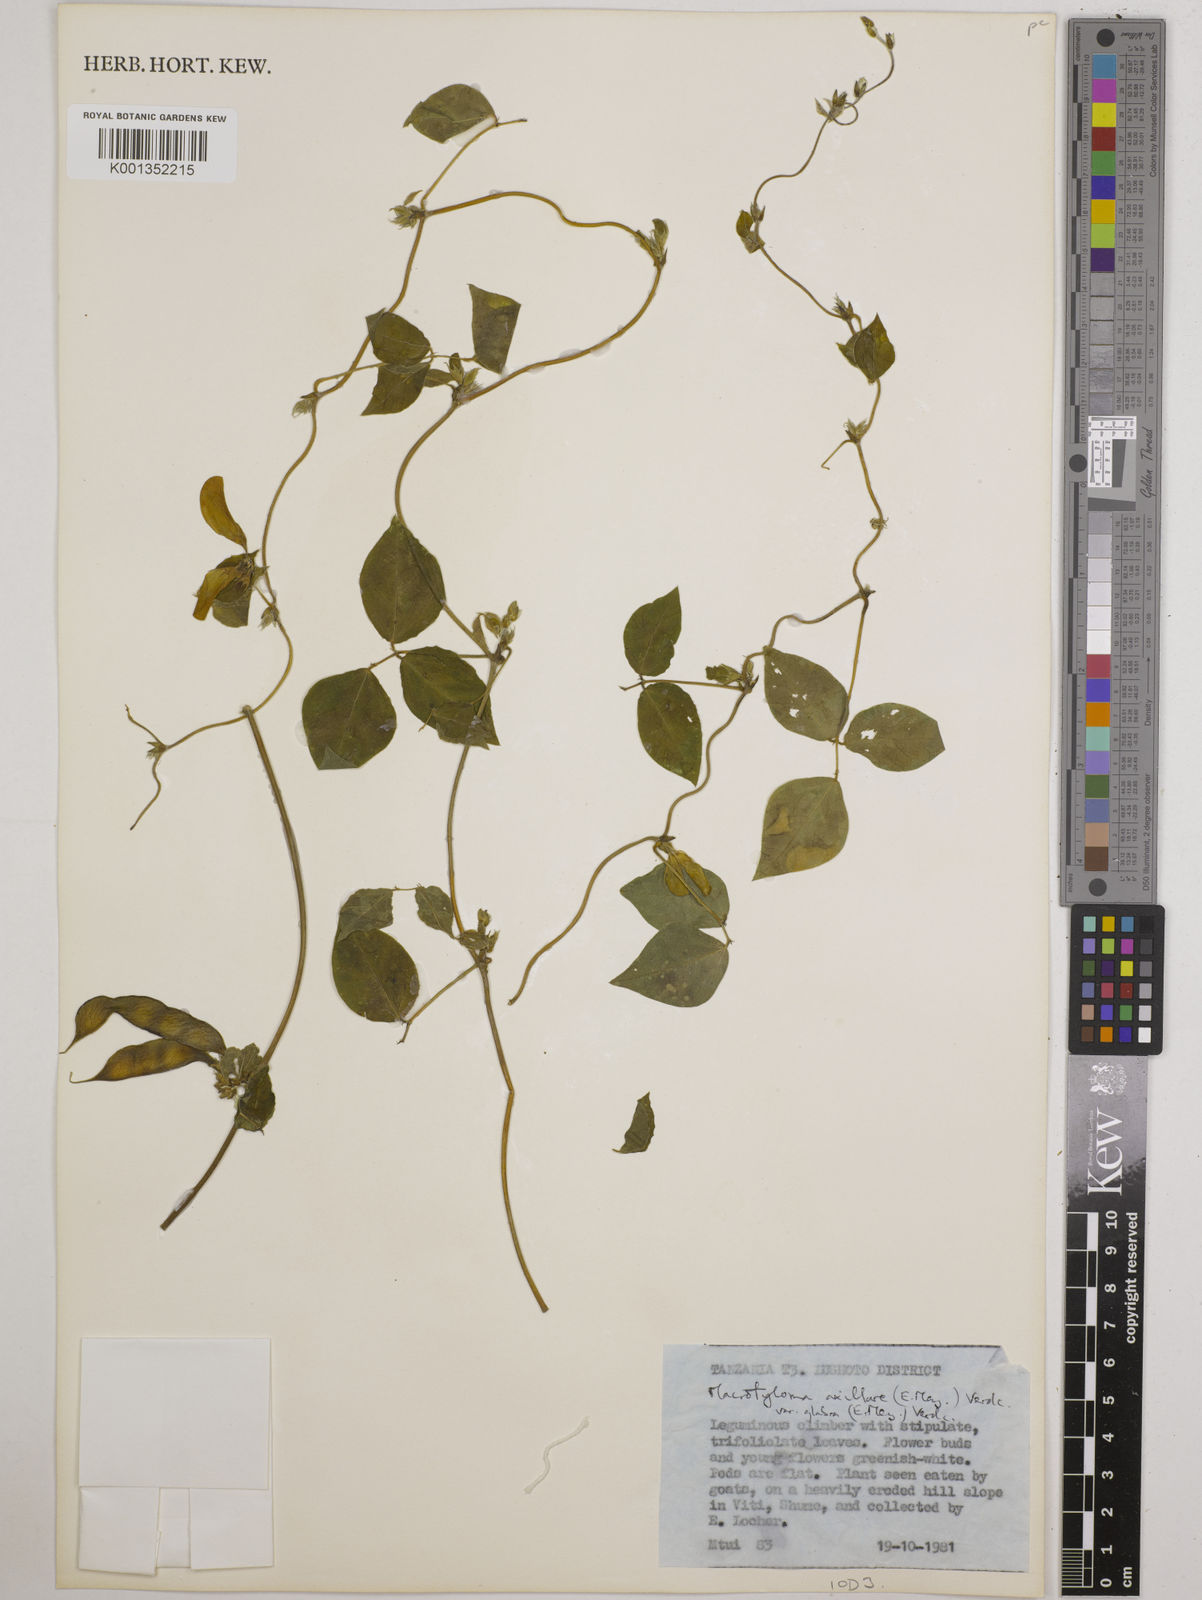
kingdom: Plantae
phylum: Tracheophyta
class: Magnoliopsida
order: Fabales
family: Fabaceae
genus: Macrotyloma
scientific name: Macrotyloma
